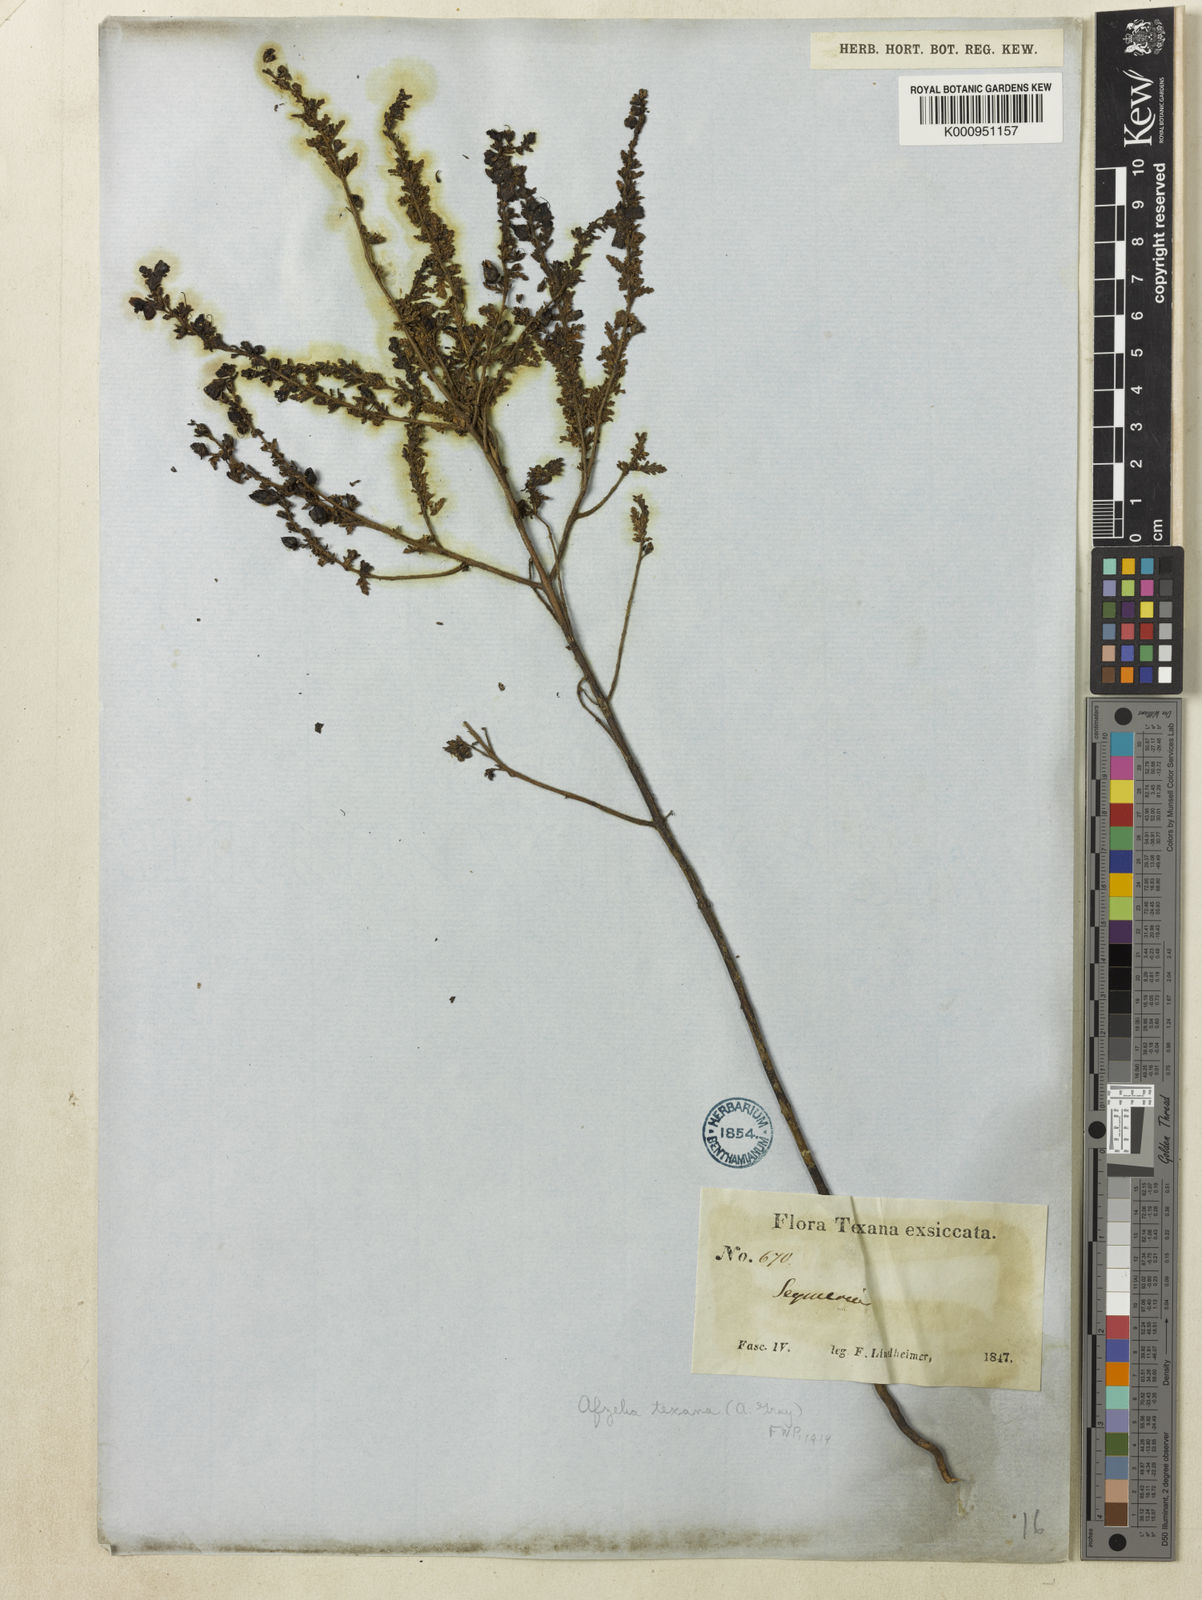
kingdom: Plantae
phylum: Tracheophyta
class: Magnoliopsida
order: Lamiales
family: Orobanchaceae
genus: Seymeria
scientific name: Seymeria
